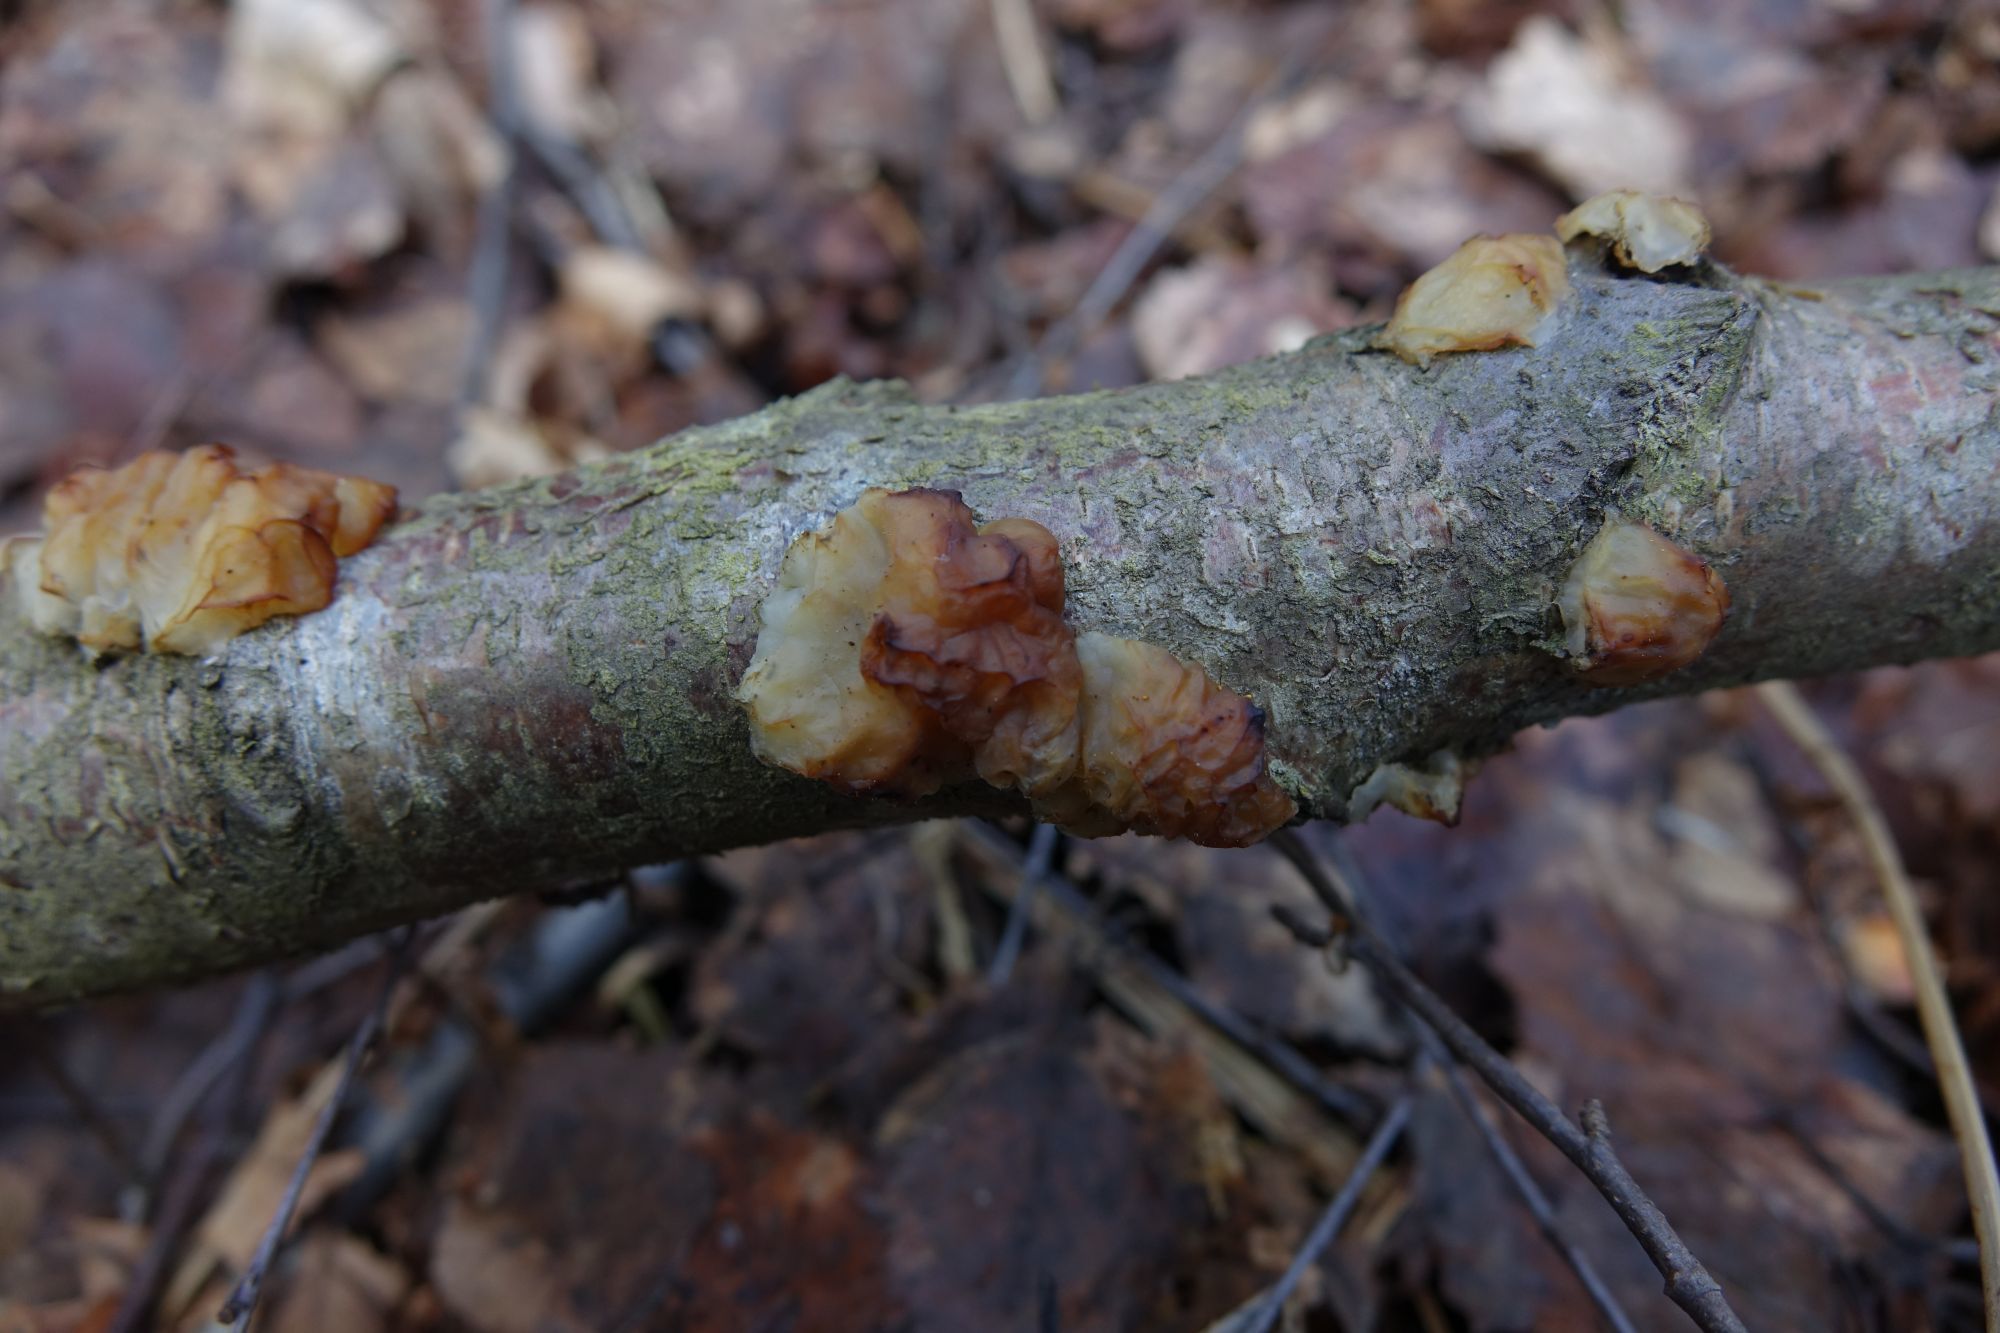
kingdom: Fungi
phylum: Basidiomycota
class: Agaricomycetes
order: Auriculariales
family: Auriculariaceae
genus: Exidia
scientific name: Exidia cartilaginea
